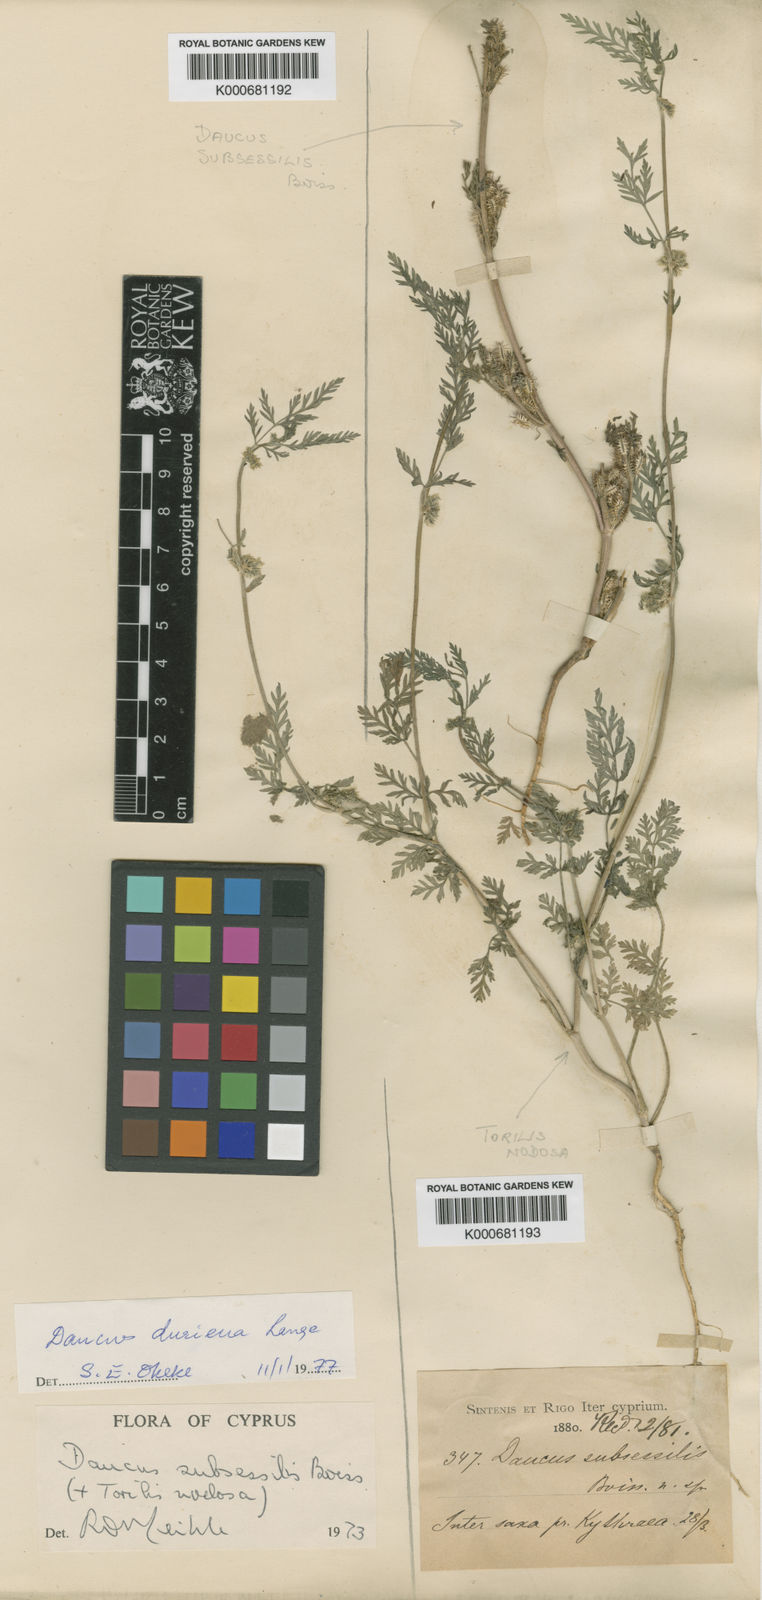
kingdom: Plantae
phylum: Tracheophyta
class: Magnoliopsida
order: Apiales
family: Apiaceae
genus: Daucus
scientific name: Daucus durieua
